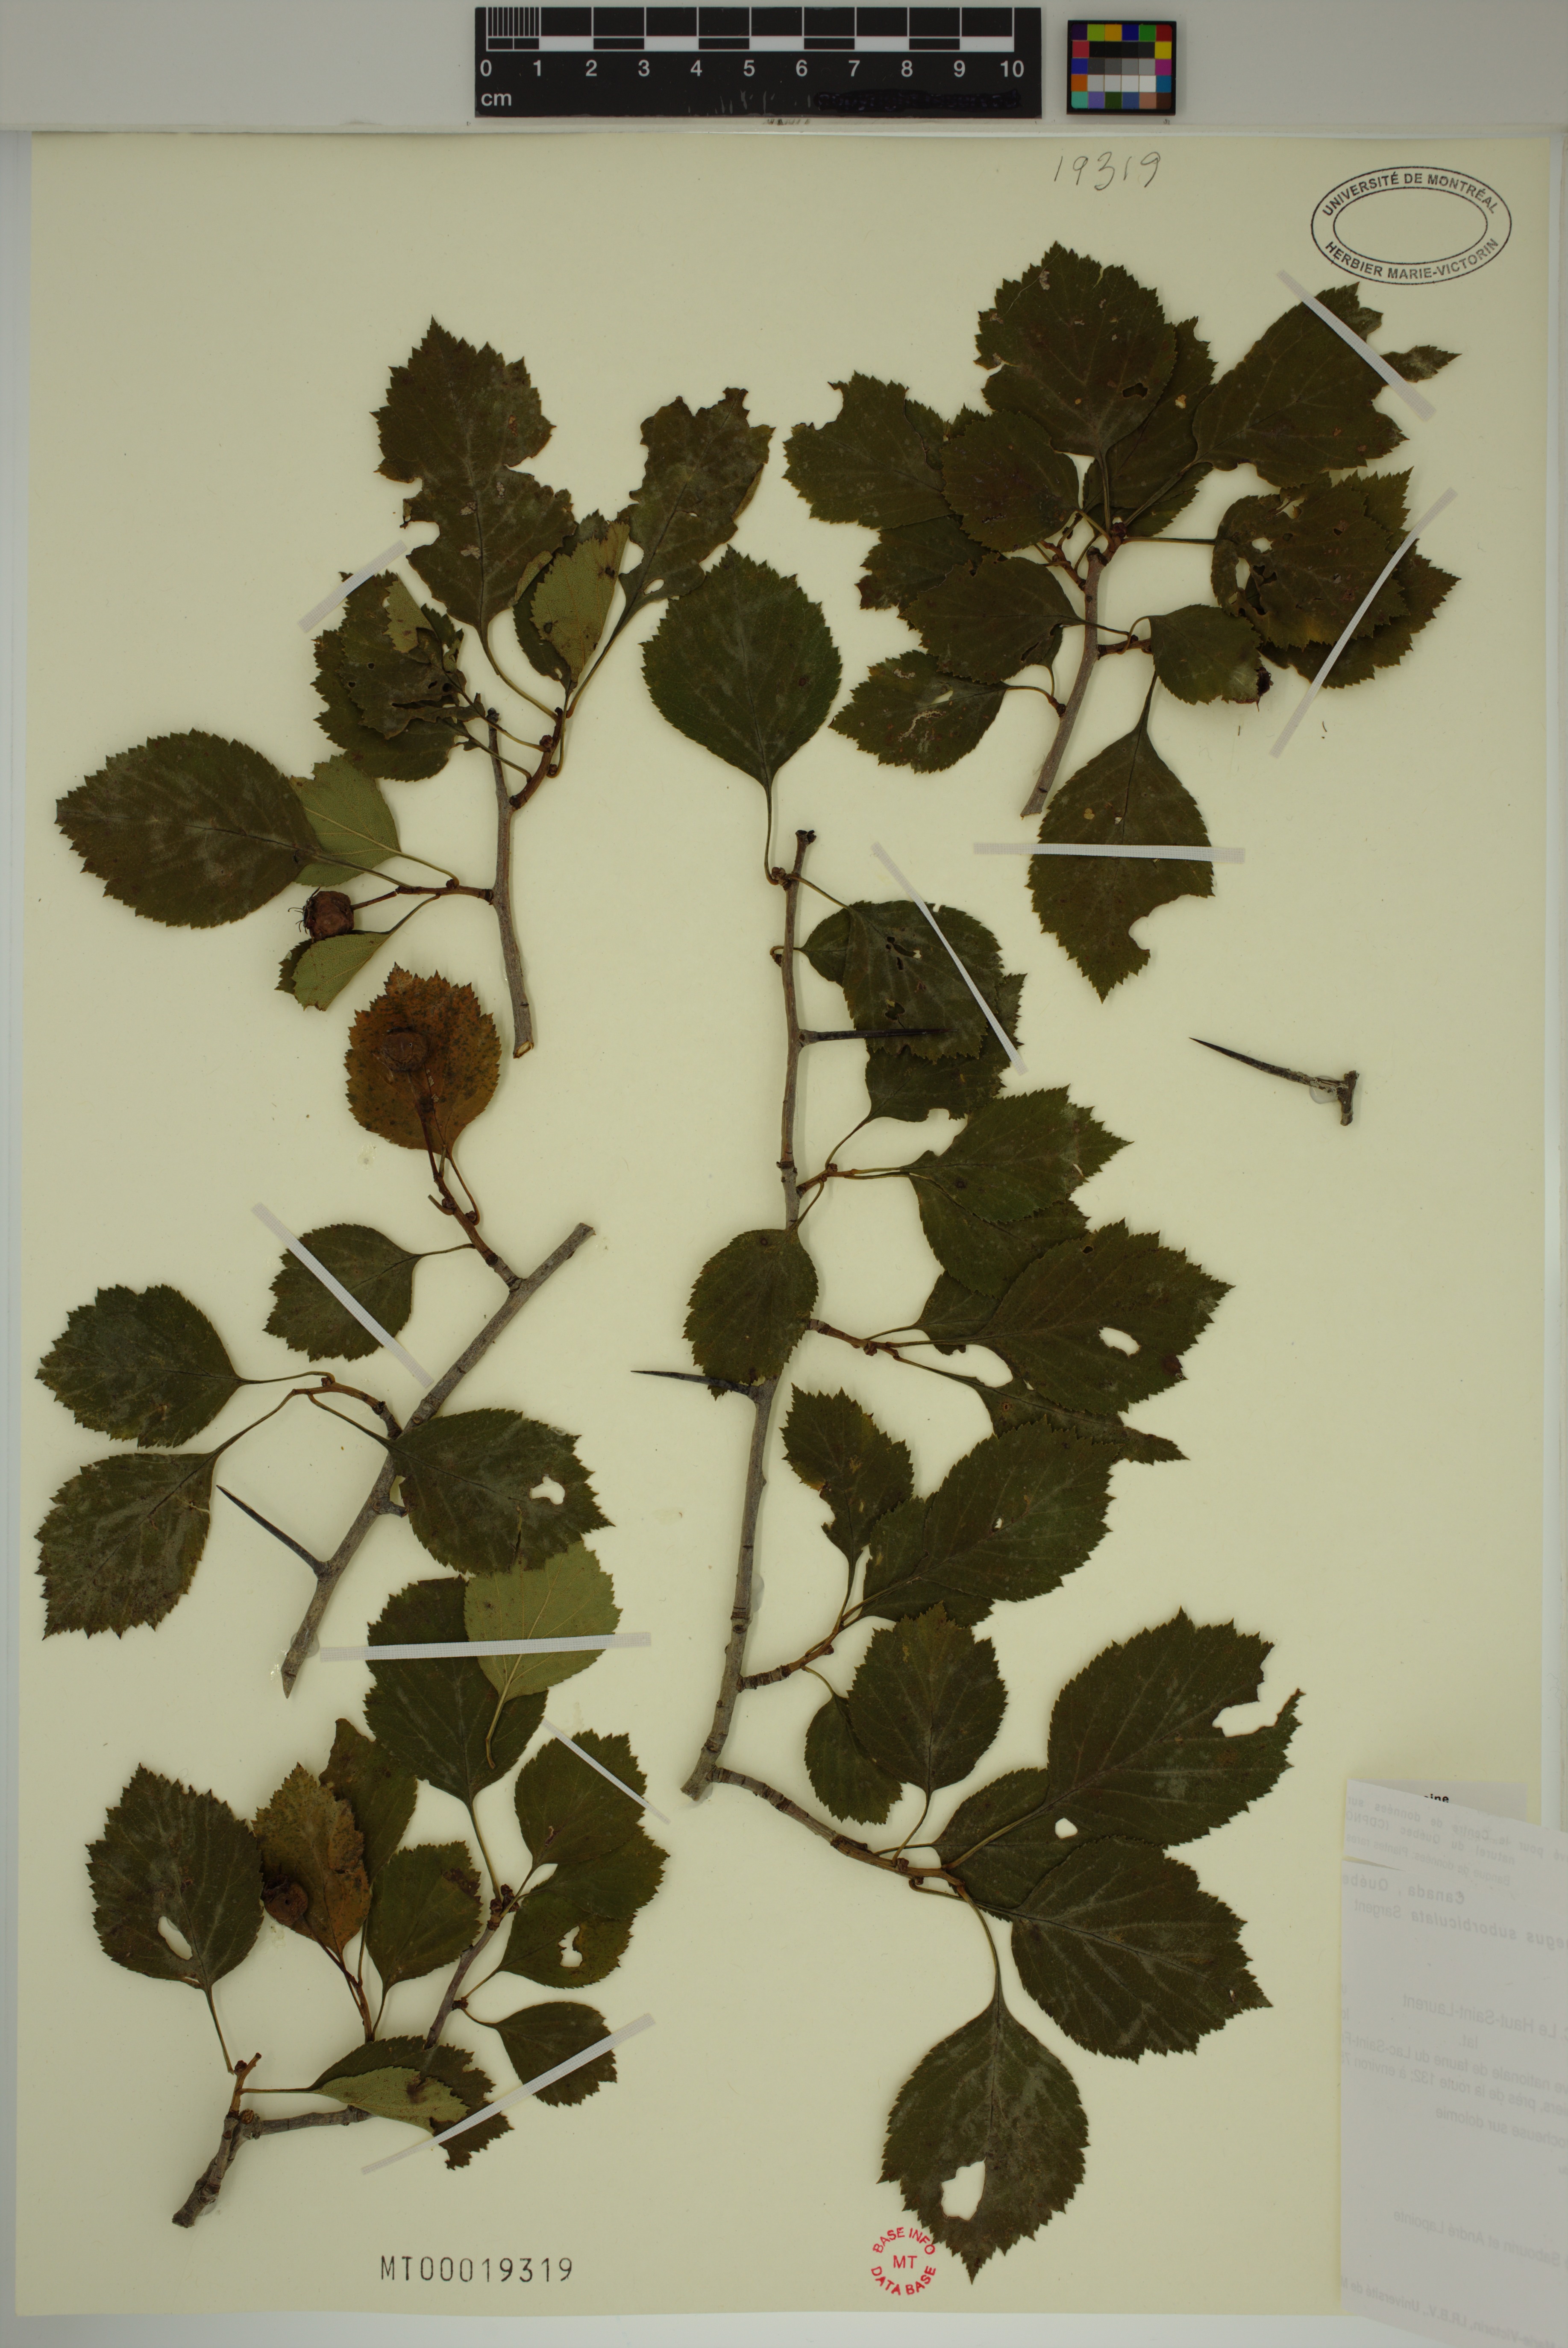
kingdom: Plantae
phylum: Tracheophyta
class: Magnoliopsida
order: Rosales
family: Rosaceae
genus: Crataegus
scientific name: Crataegus suborbiculata
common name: Caughnawaga hawthorn
